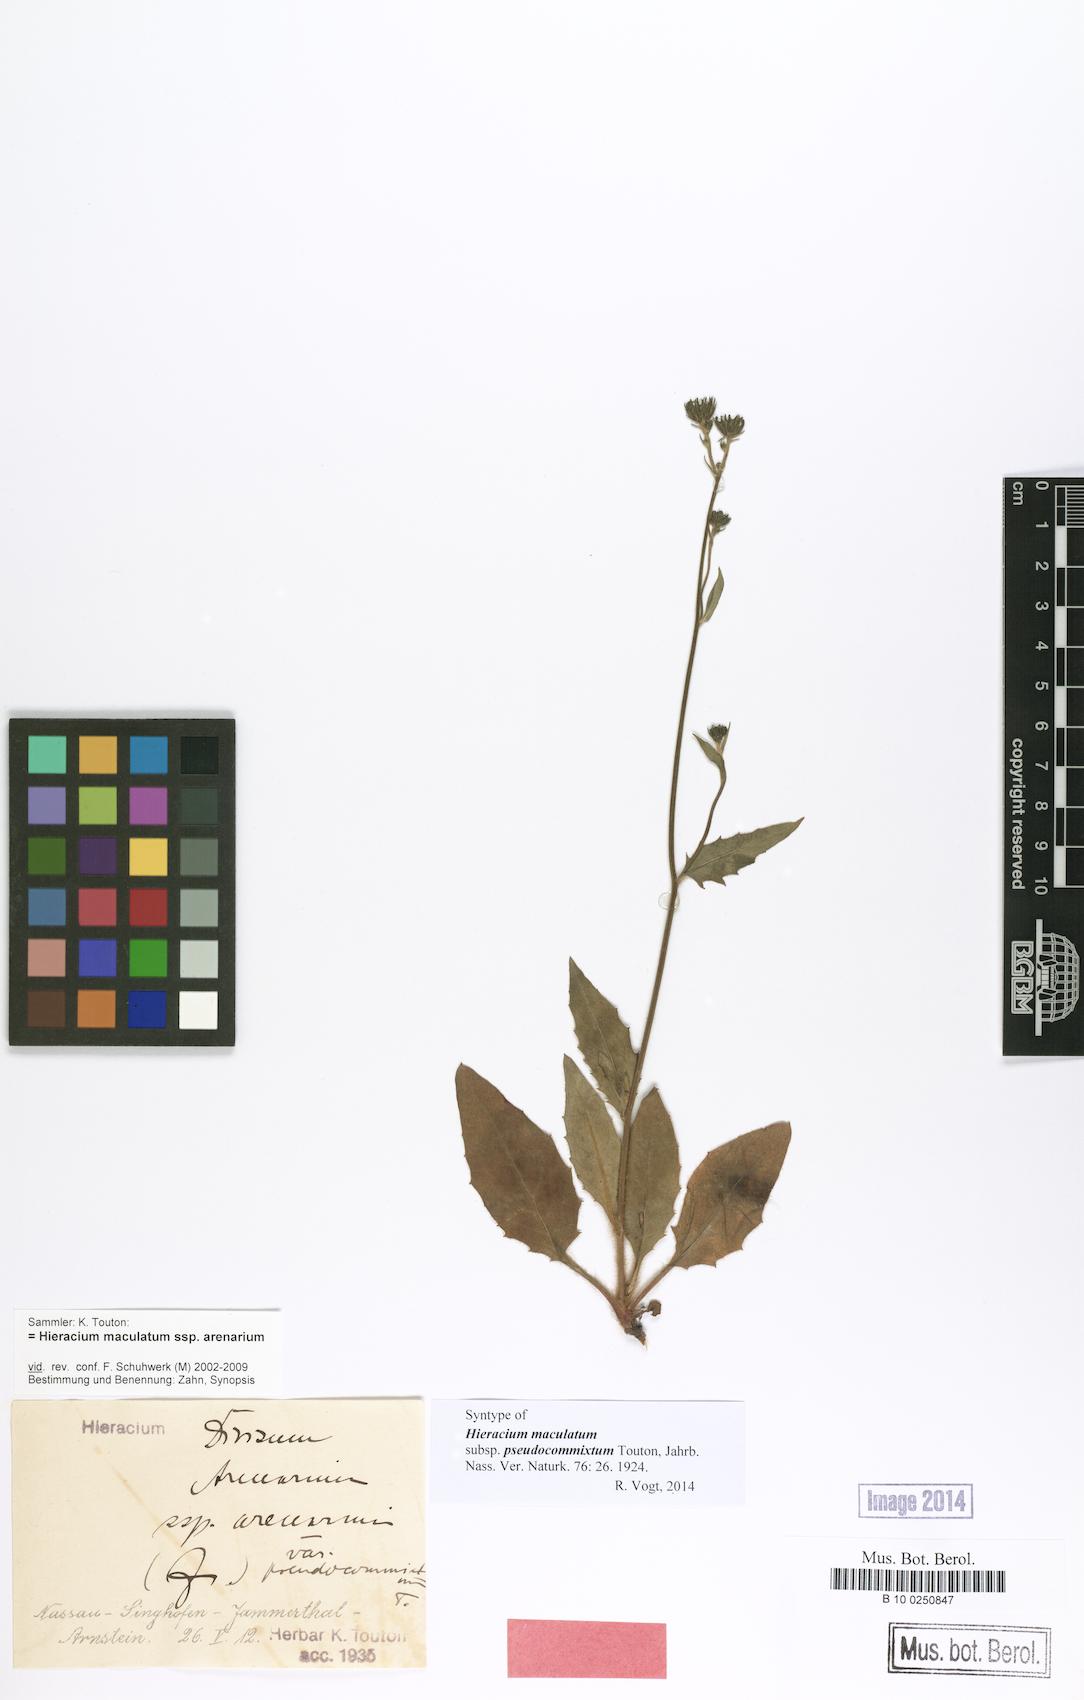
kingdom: Plantae
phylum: Tracheophyta
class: Magnoliopsida
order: Asterales
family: Asteraceae
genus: Hieracium
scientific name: Hieracium maculatum
